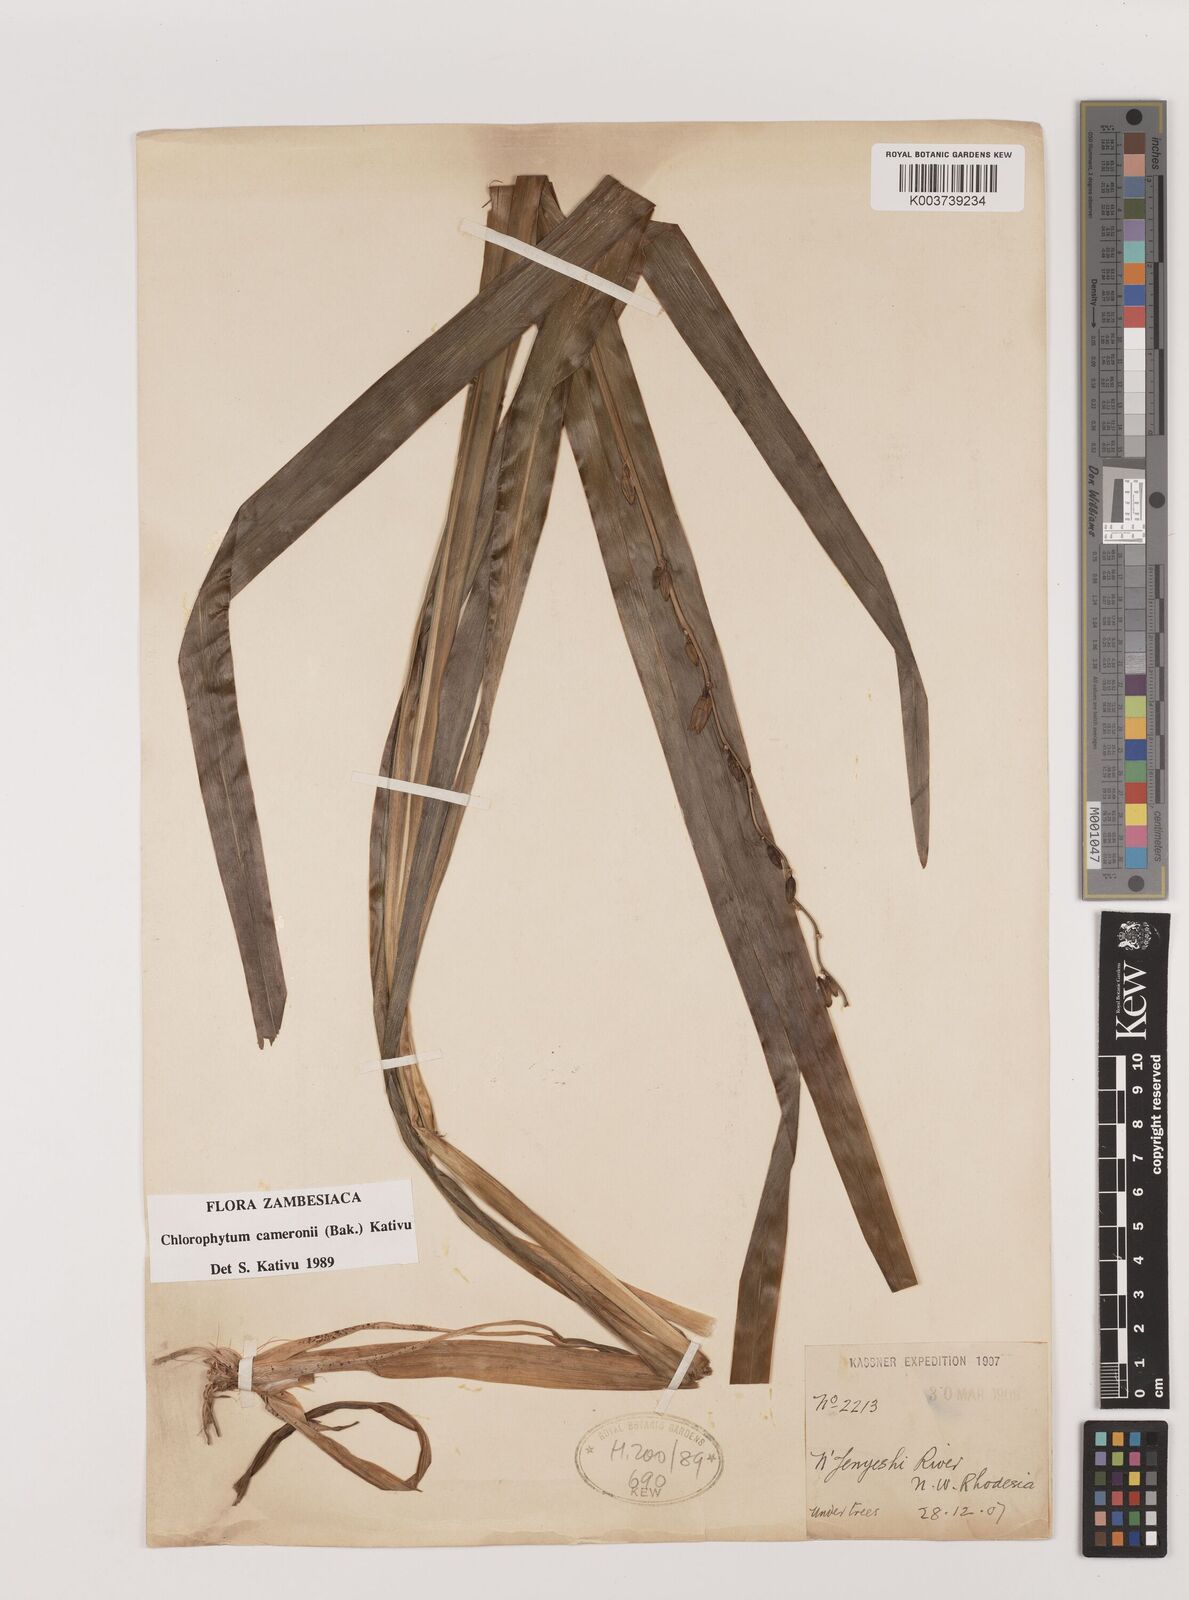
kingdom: Plantae
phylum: Tracheophyta
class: Liliopsida
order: Asparagales
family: Asparagaceae
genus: Chlorophytum
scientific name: Chlorophytum cameronii
